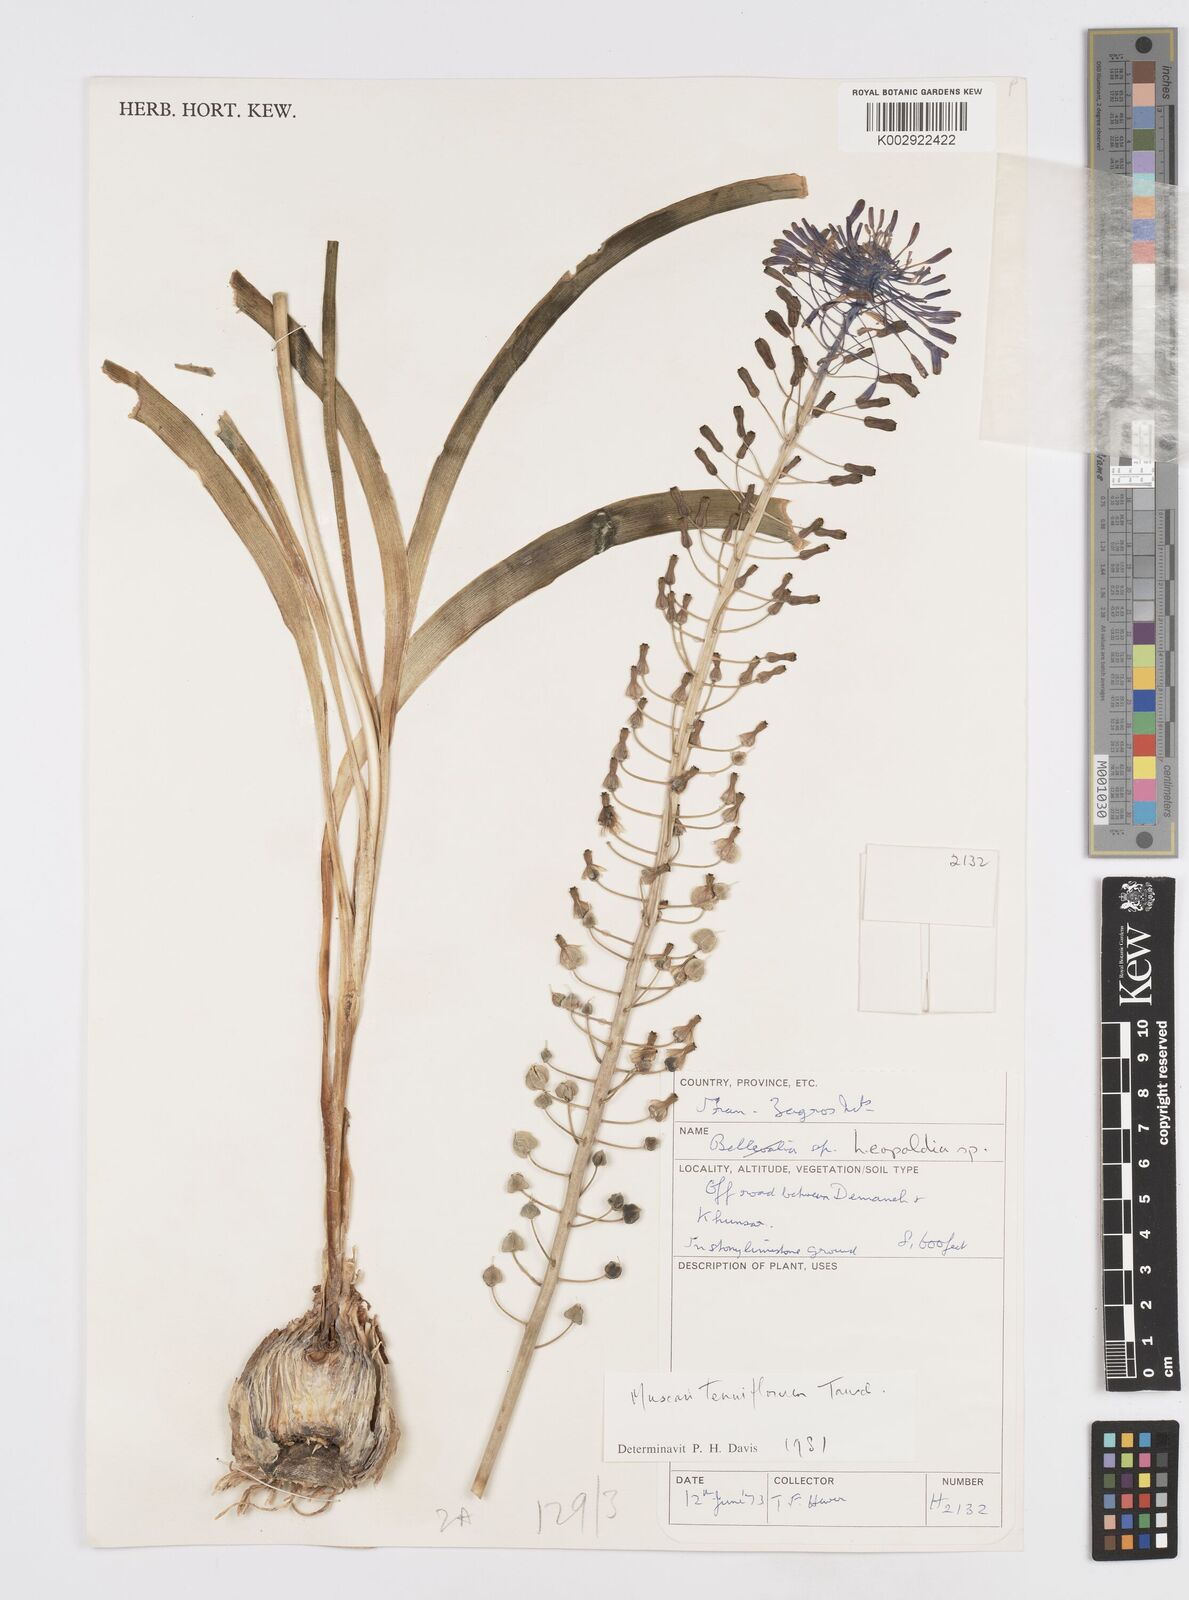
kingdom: Plantae
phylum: Tracheophyta
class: Liliopsida
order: Asparagales
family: Asparagaceae
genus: Muscari
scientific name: Muscari tenuiflorum
